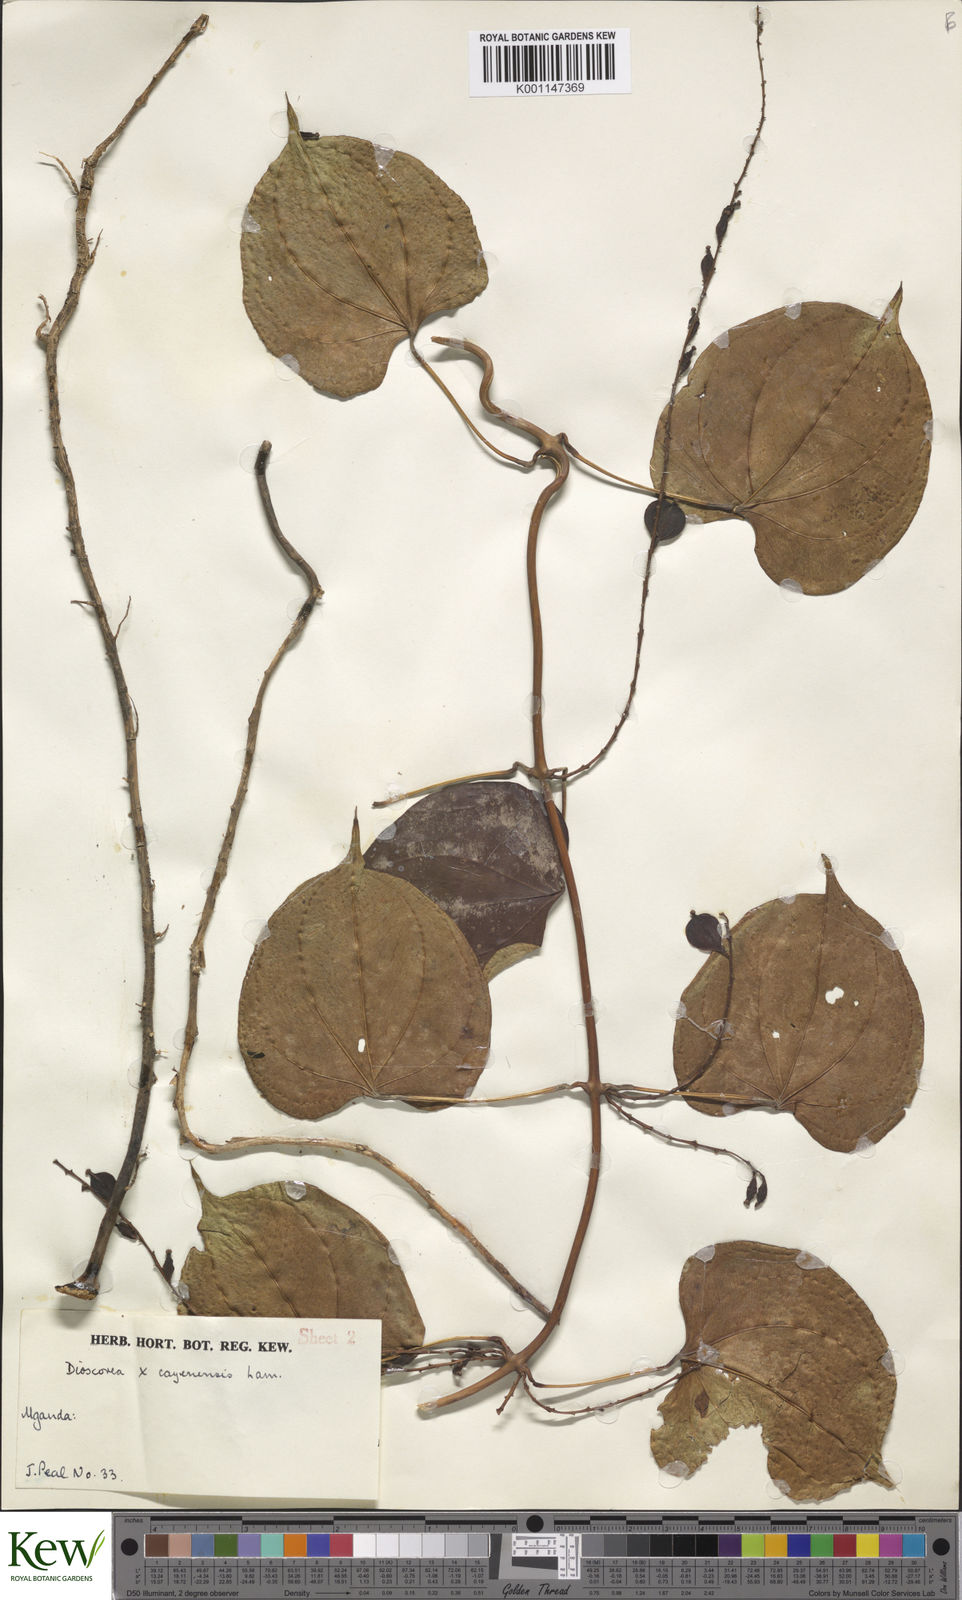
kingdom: Plantae
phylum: Tracheophyta
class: Liliopsida
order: Dioscoreales
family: Dioscoreaceae
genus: Dioscorea
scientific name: Dioscorea cayenensis
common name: Attoto yam
